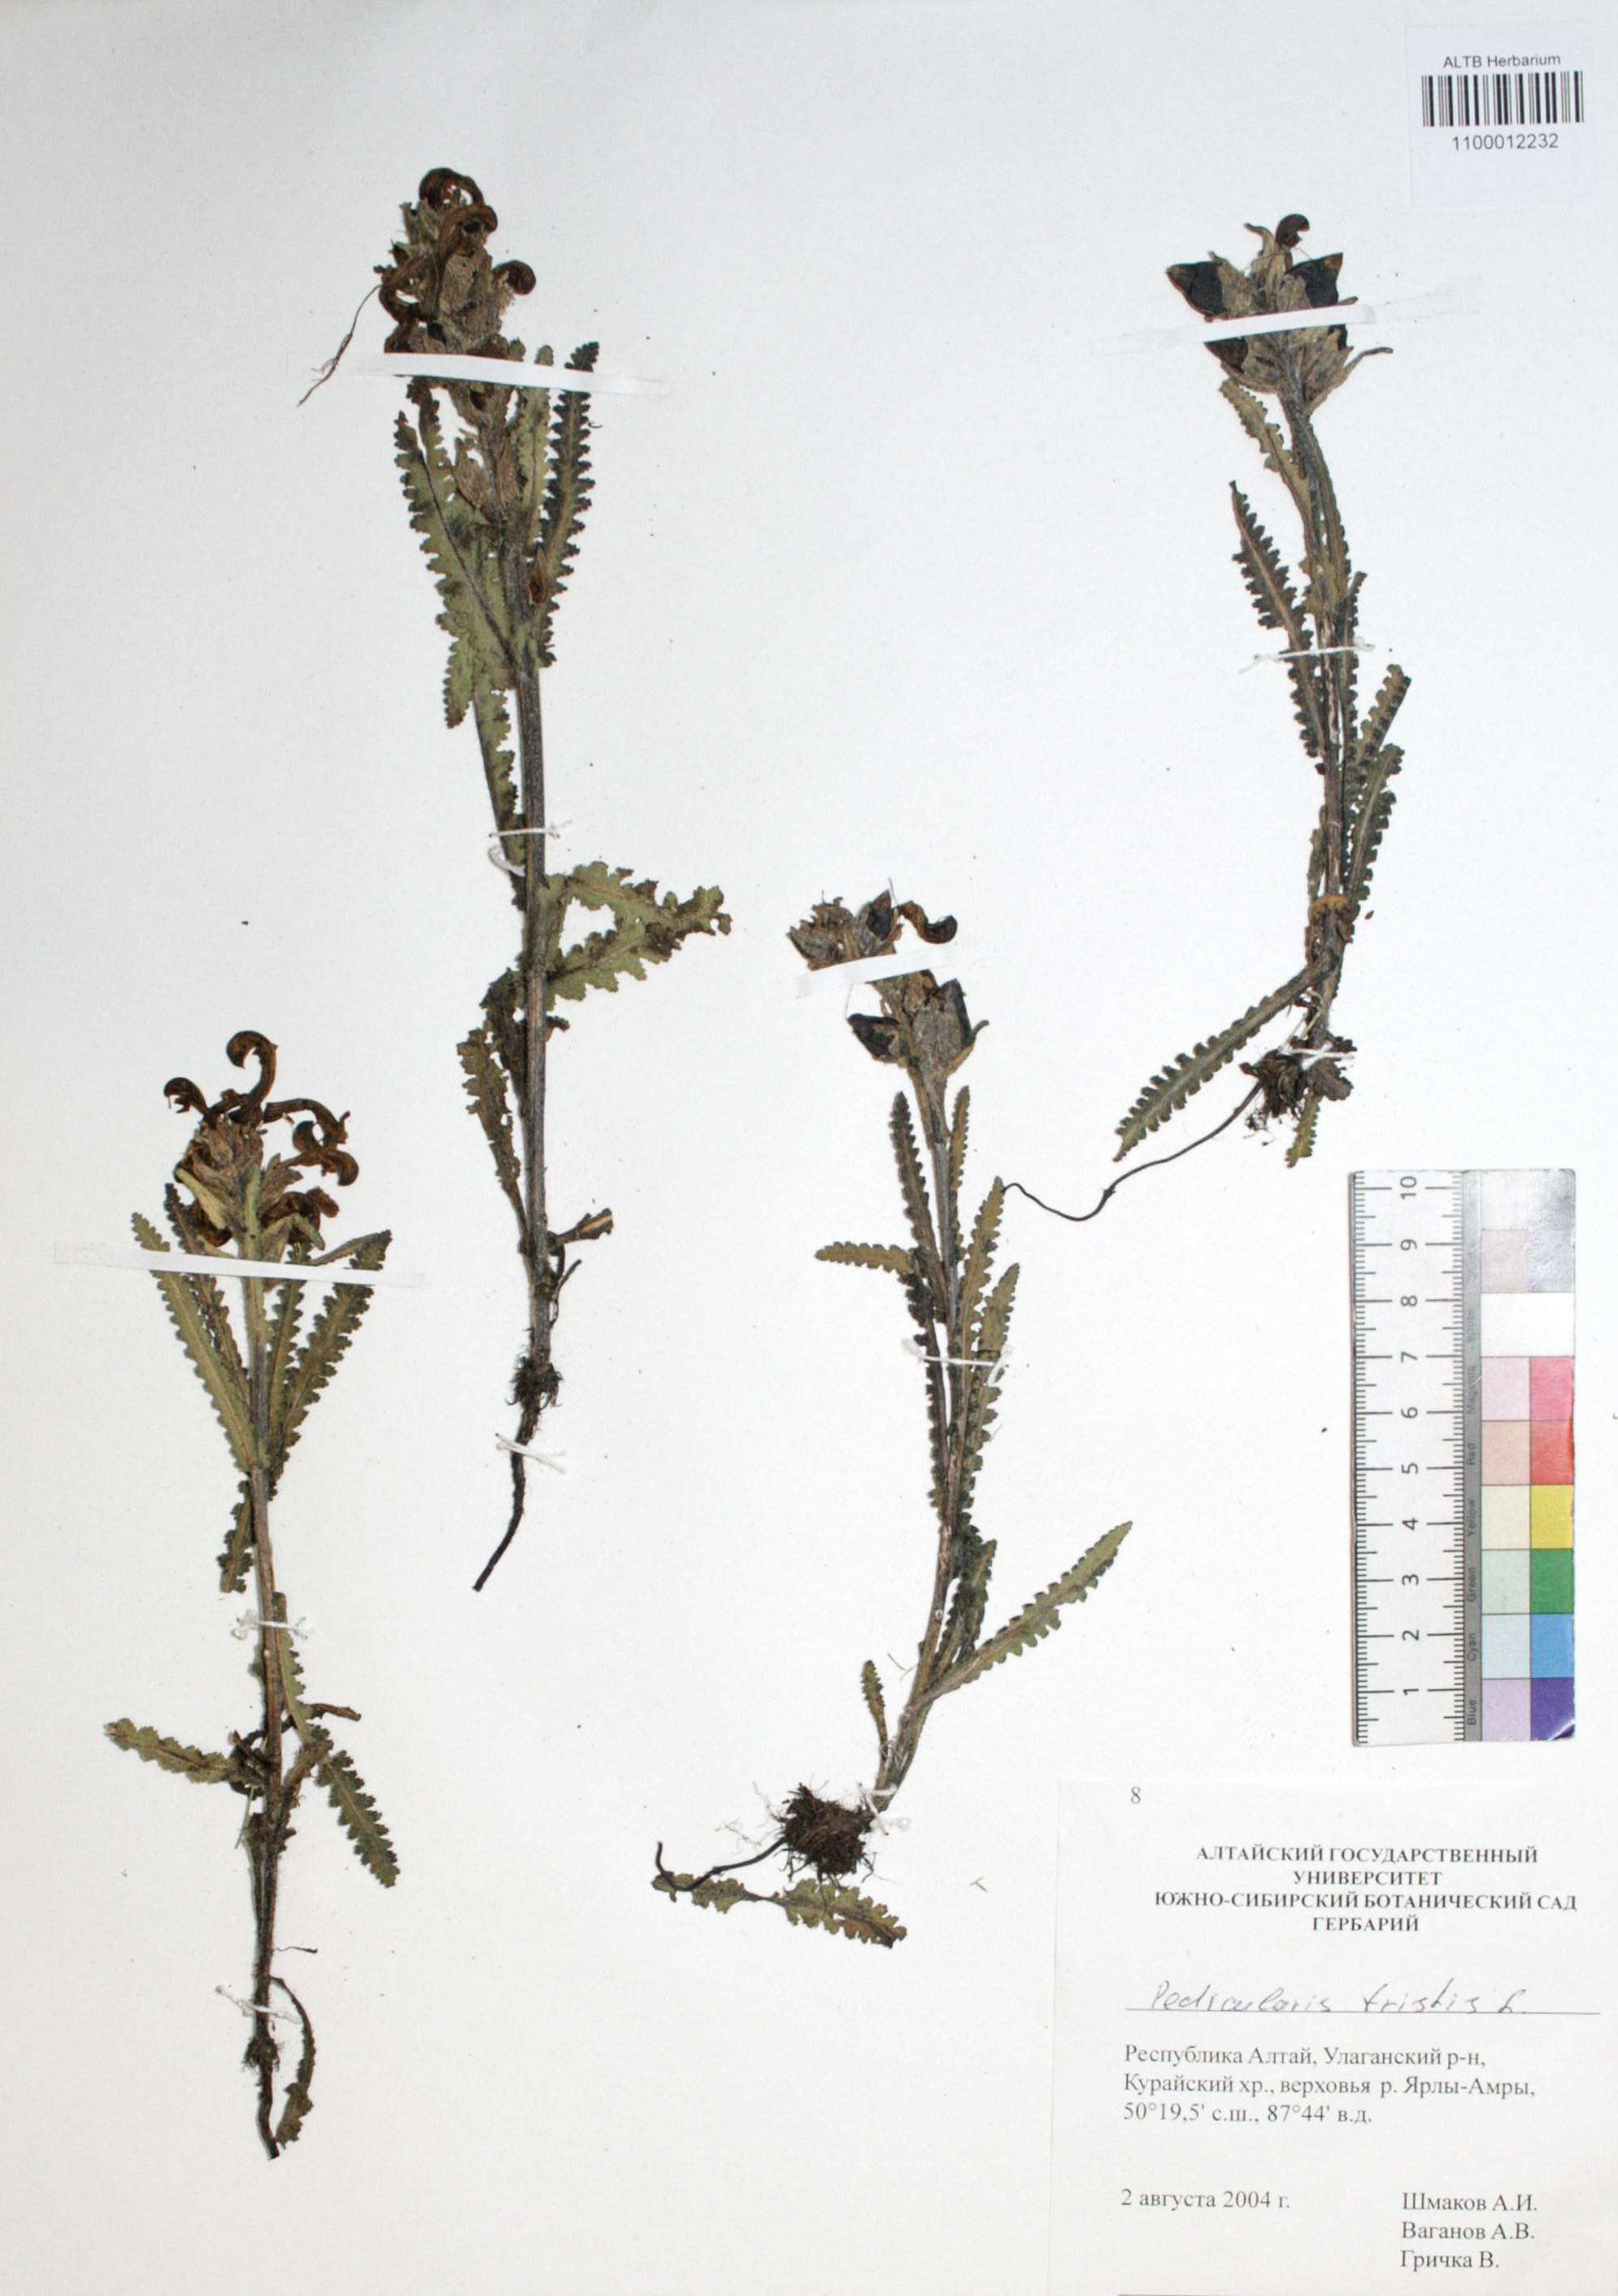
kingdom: Plantae
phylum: Tracheophyta
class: Magnoliopsida
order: Lamiales
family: Orobanchaceae
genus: Pedicularis
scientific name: Pedicularis tristis
